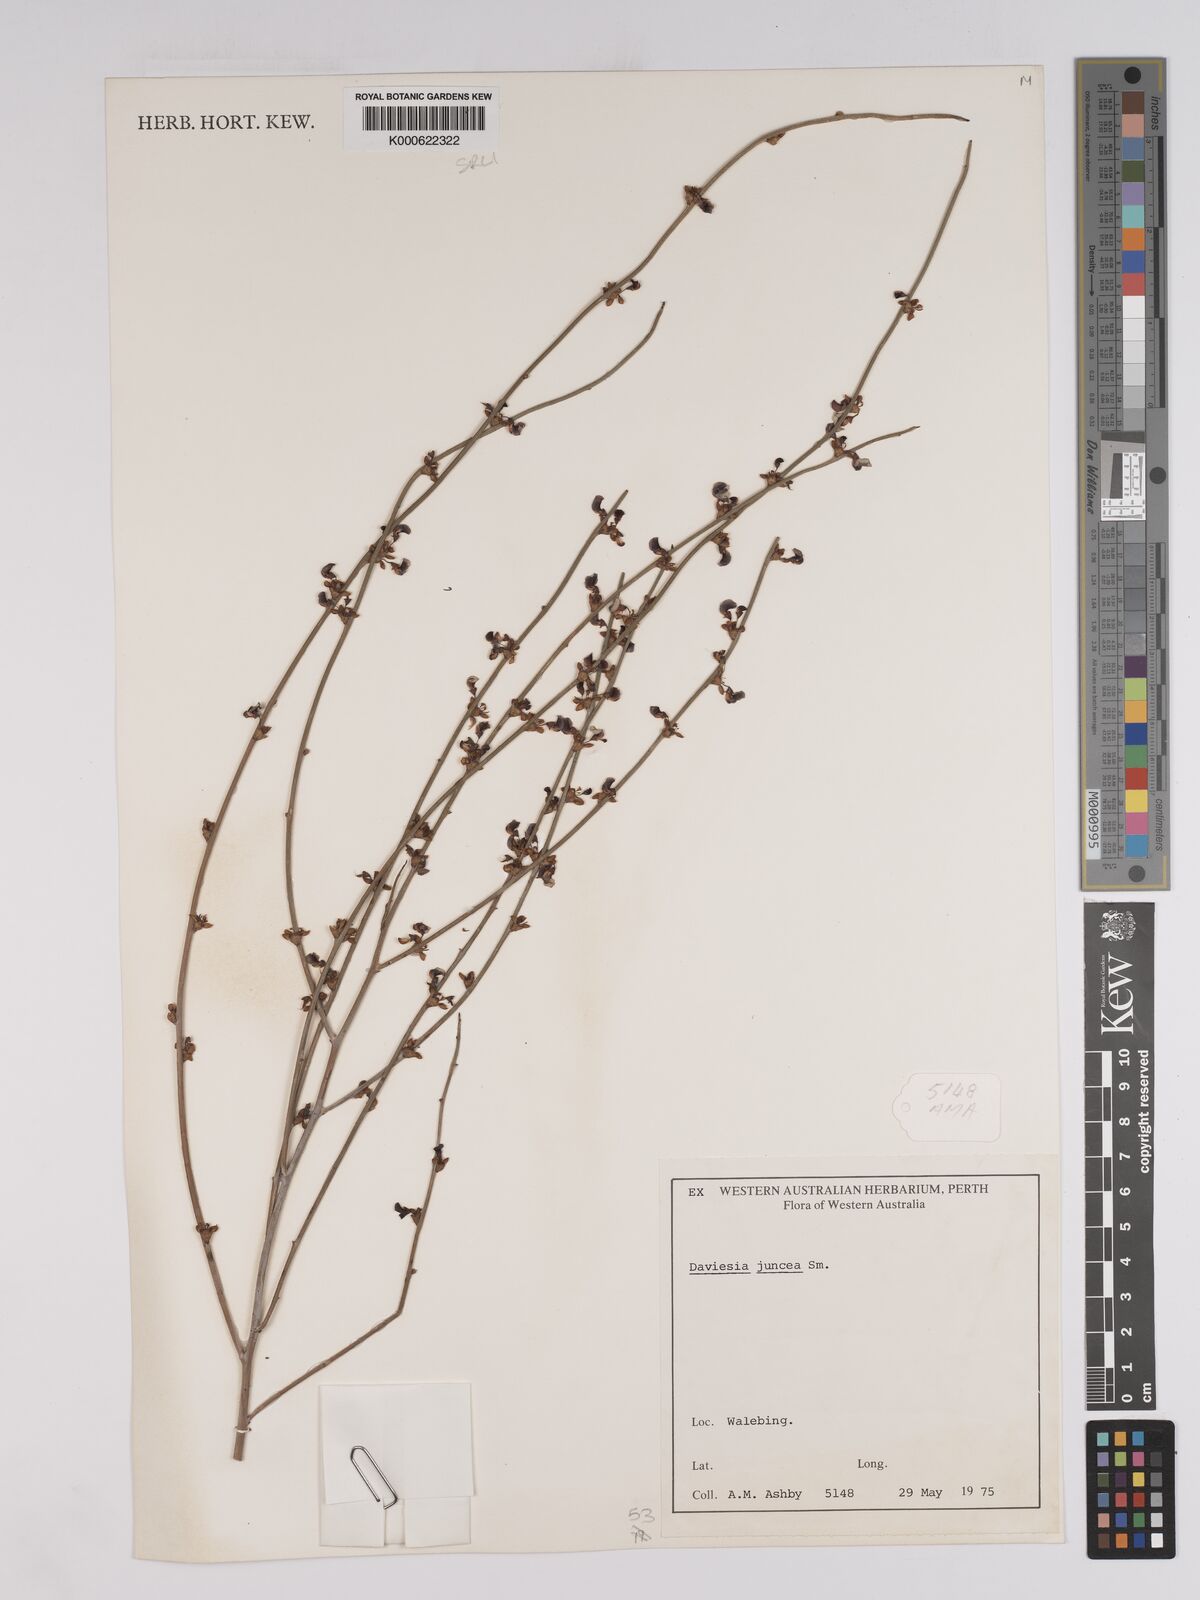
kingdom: Plantae
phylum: Tracheophyta
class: Magnoliopsida
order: Fabales
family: Fabaceae
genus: Daviesia
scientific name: Daviesia gracilis
